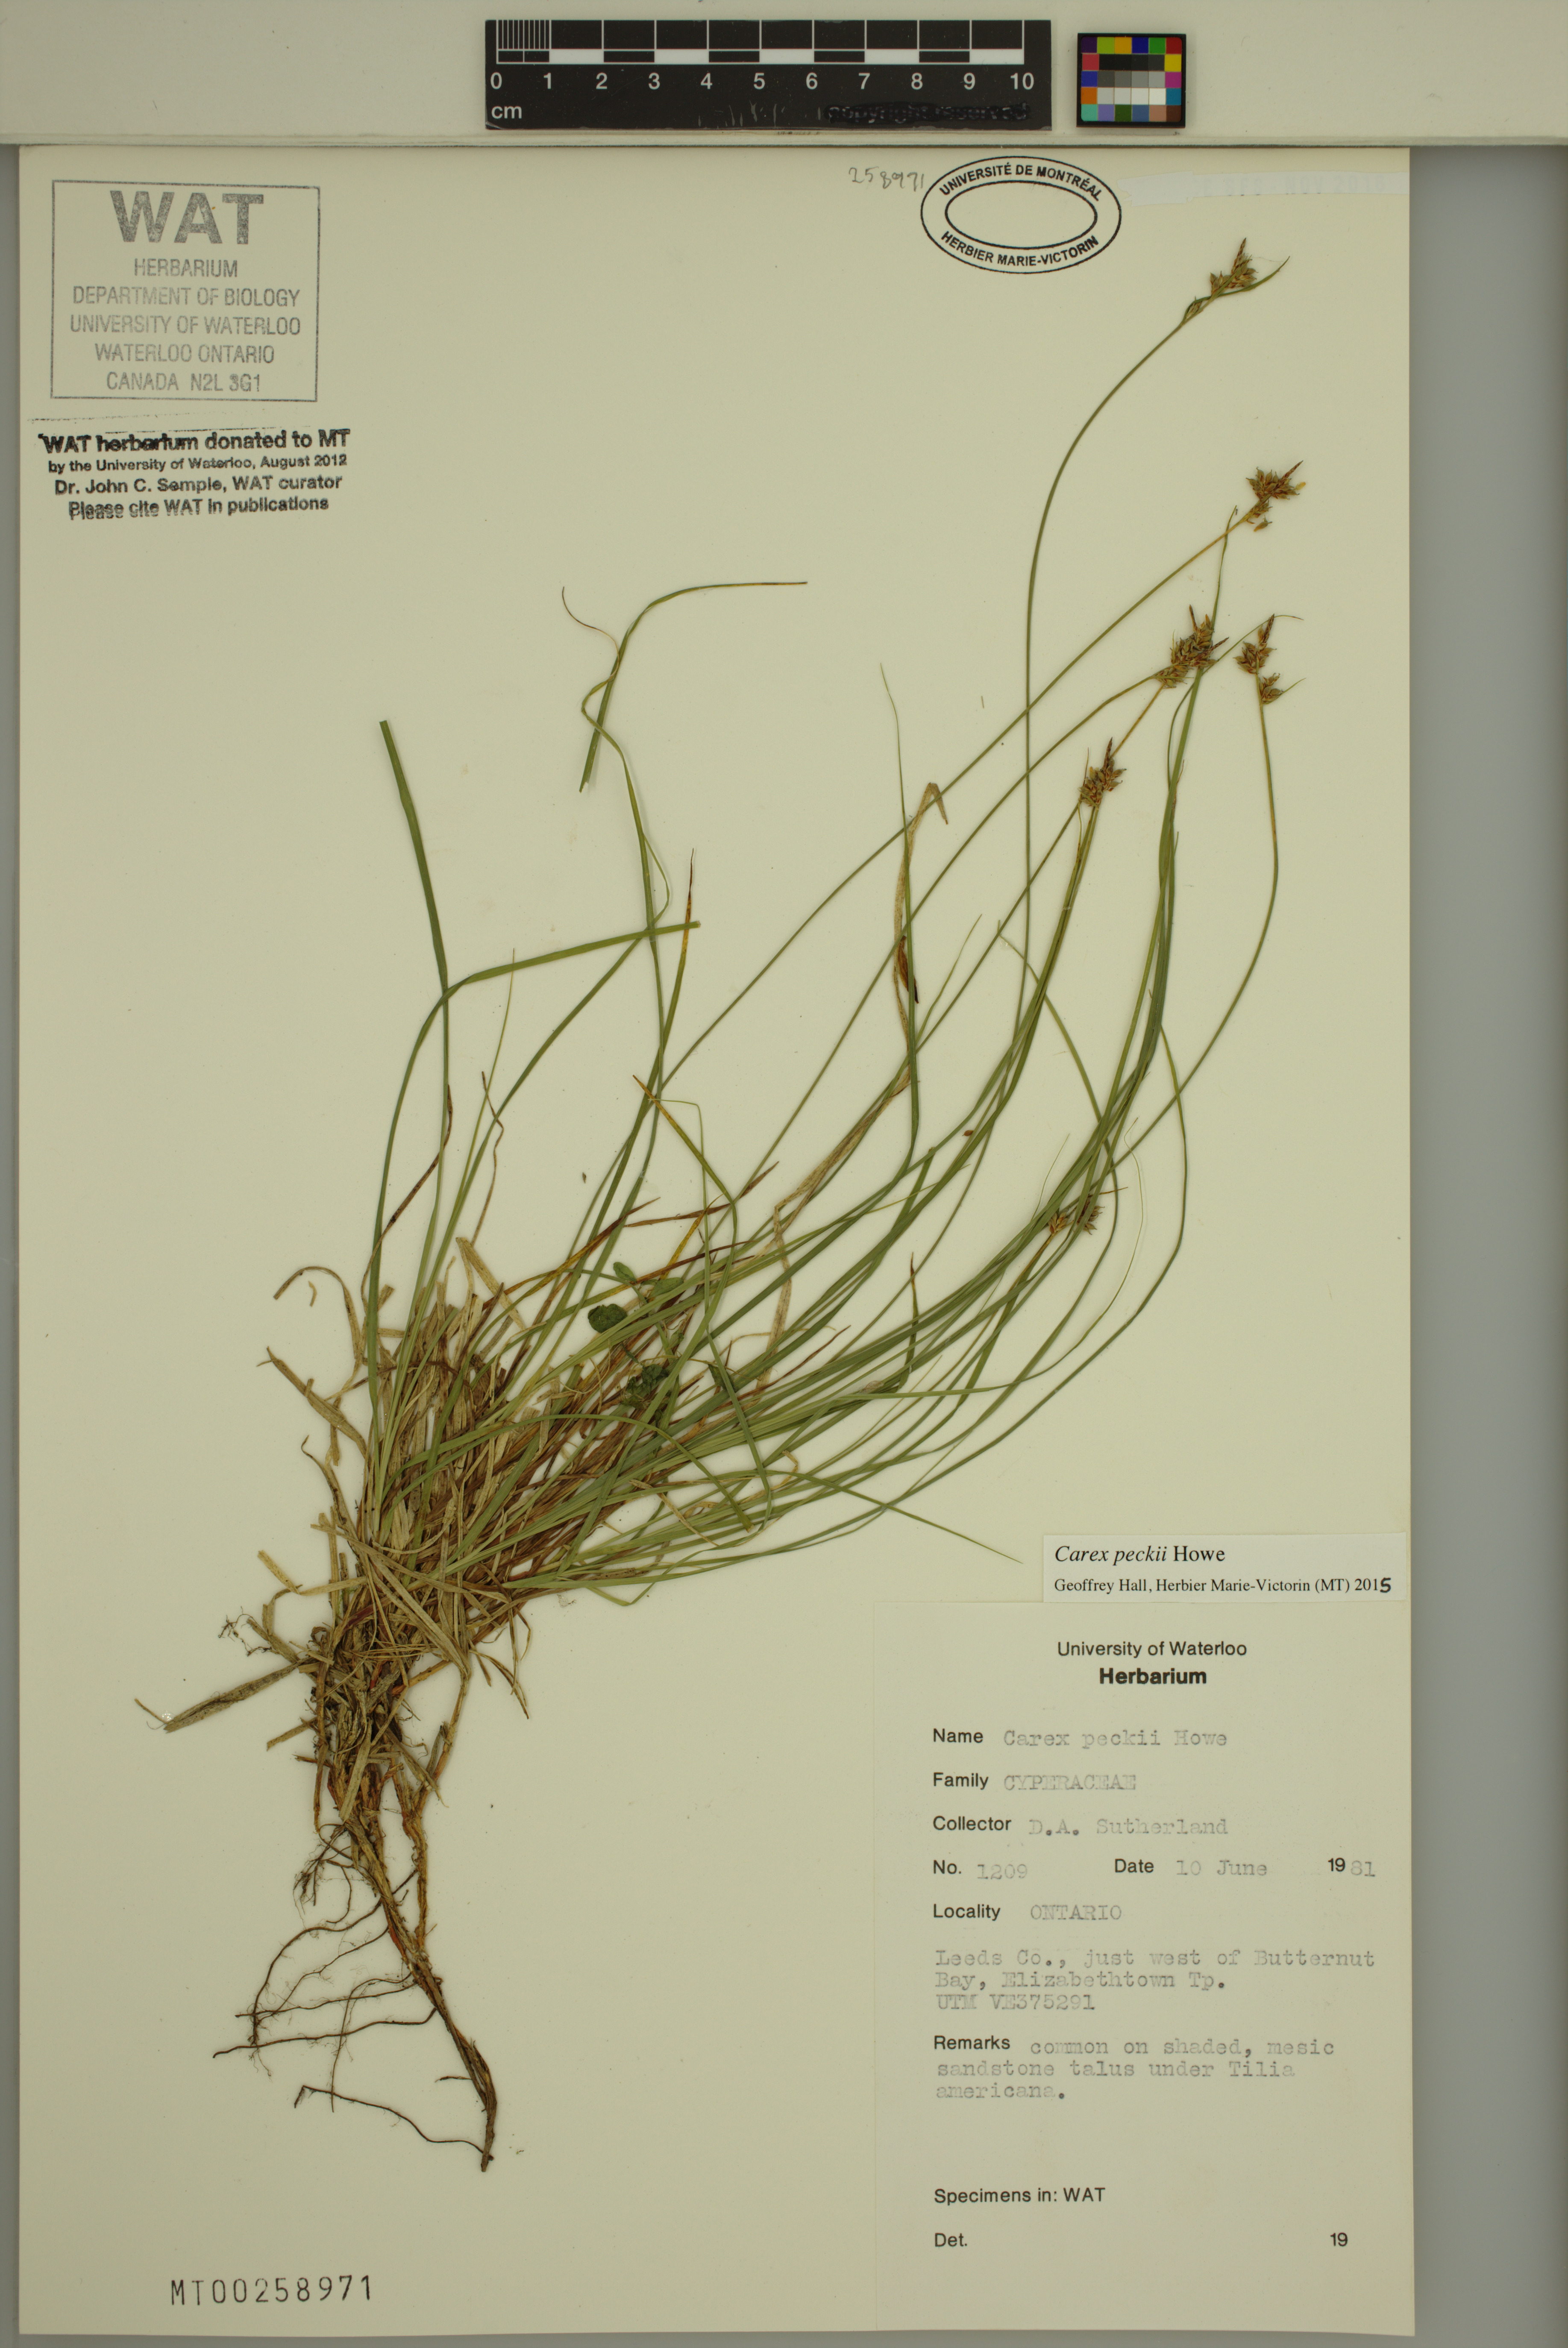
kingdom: Plantae
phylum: Tracheophyta
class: Liliopsida
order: Poales
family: Cyperaceae
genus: Carex
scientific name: Carex peckii
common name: Peck's oak sedge
